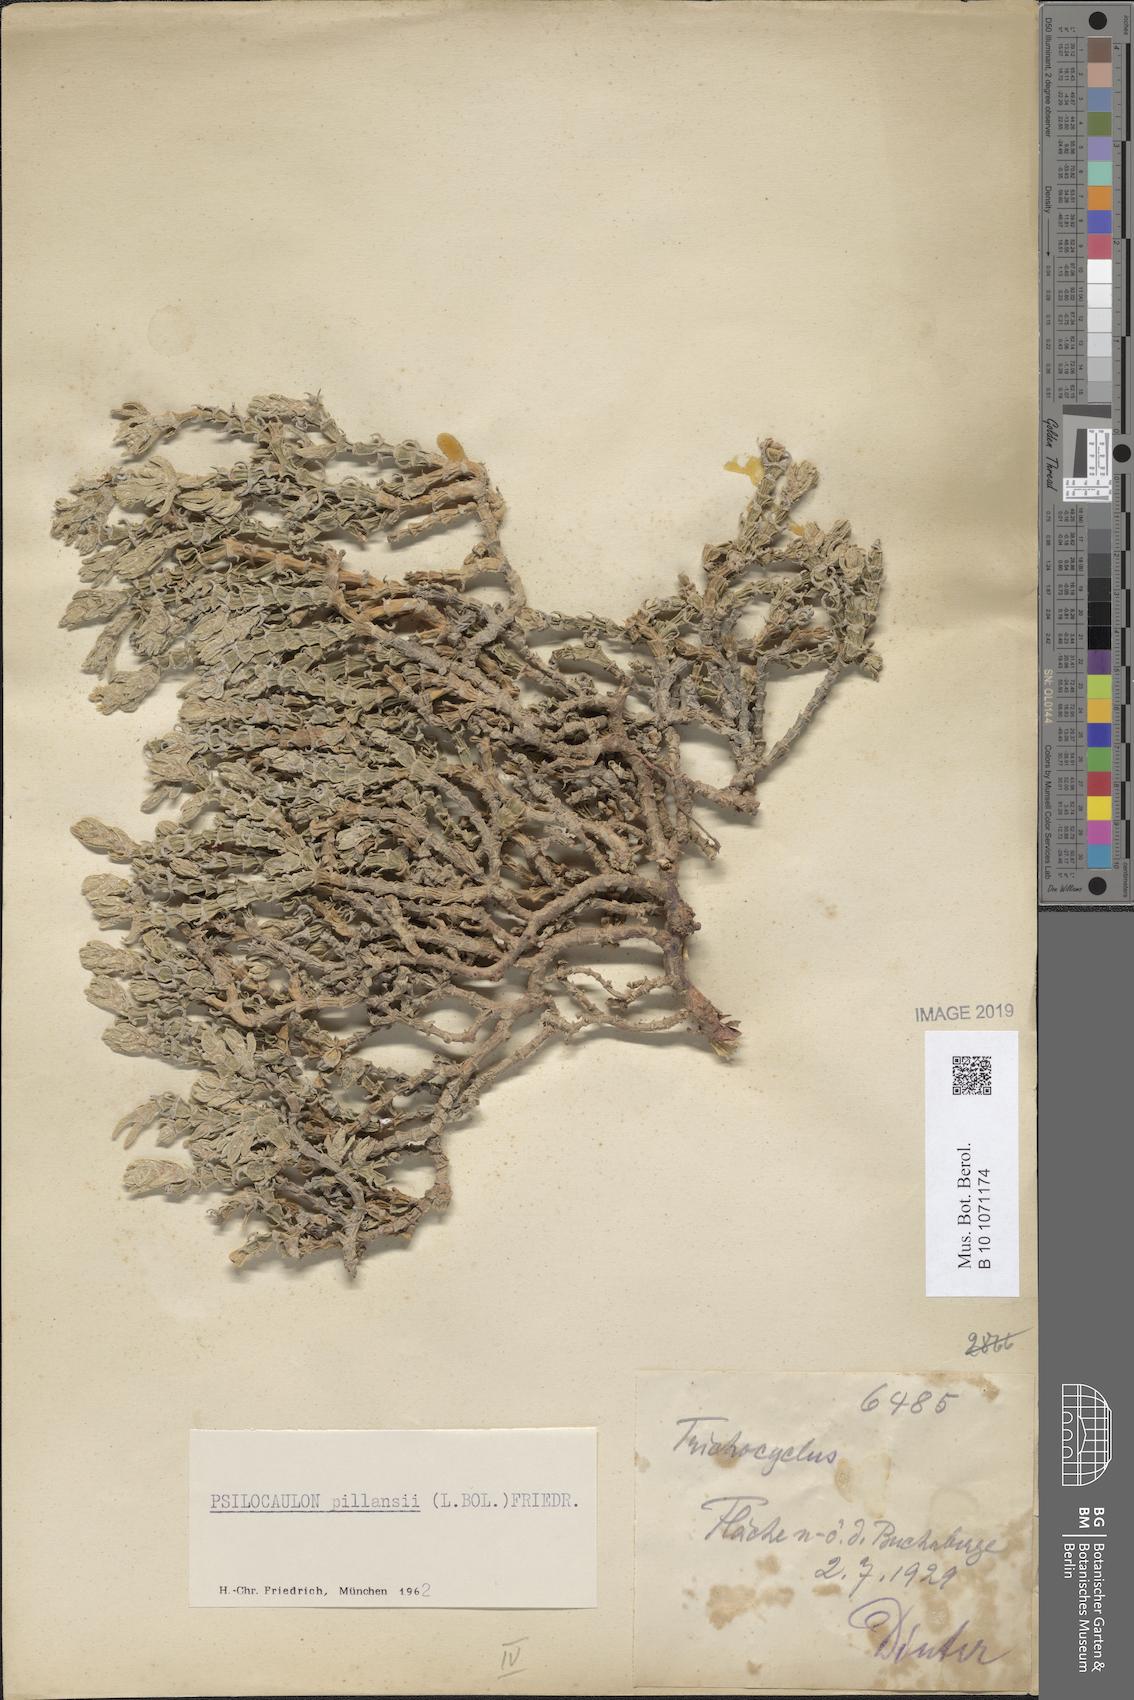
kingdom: Plantae
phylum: Tracheophyta
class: Magnoliopsida
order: Caryophyllales
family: Aizoaceae
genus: Mesembryanthemum
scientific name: Mesembryanthemum tomentosum
